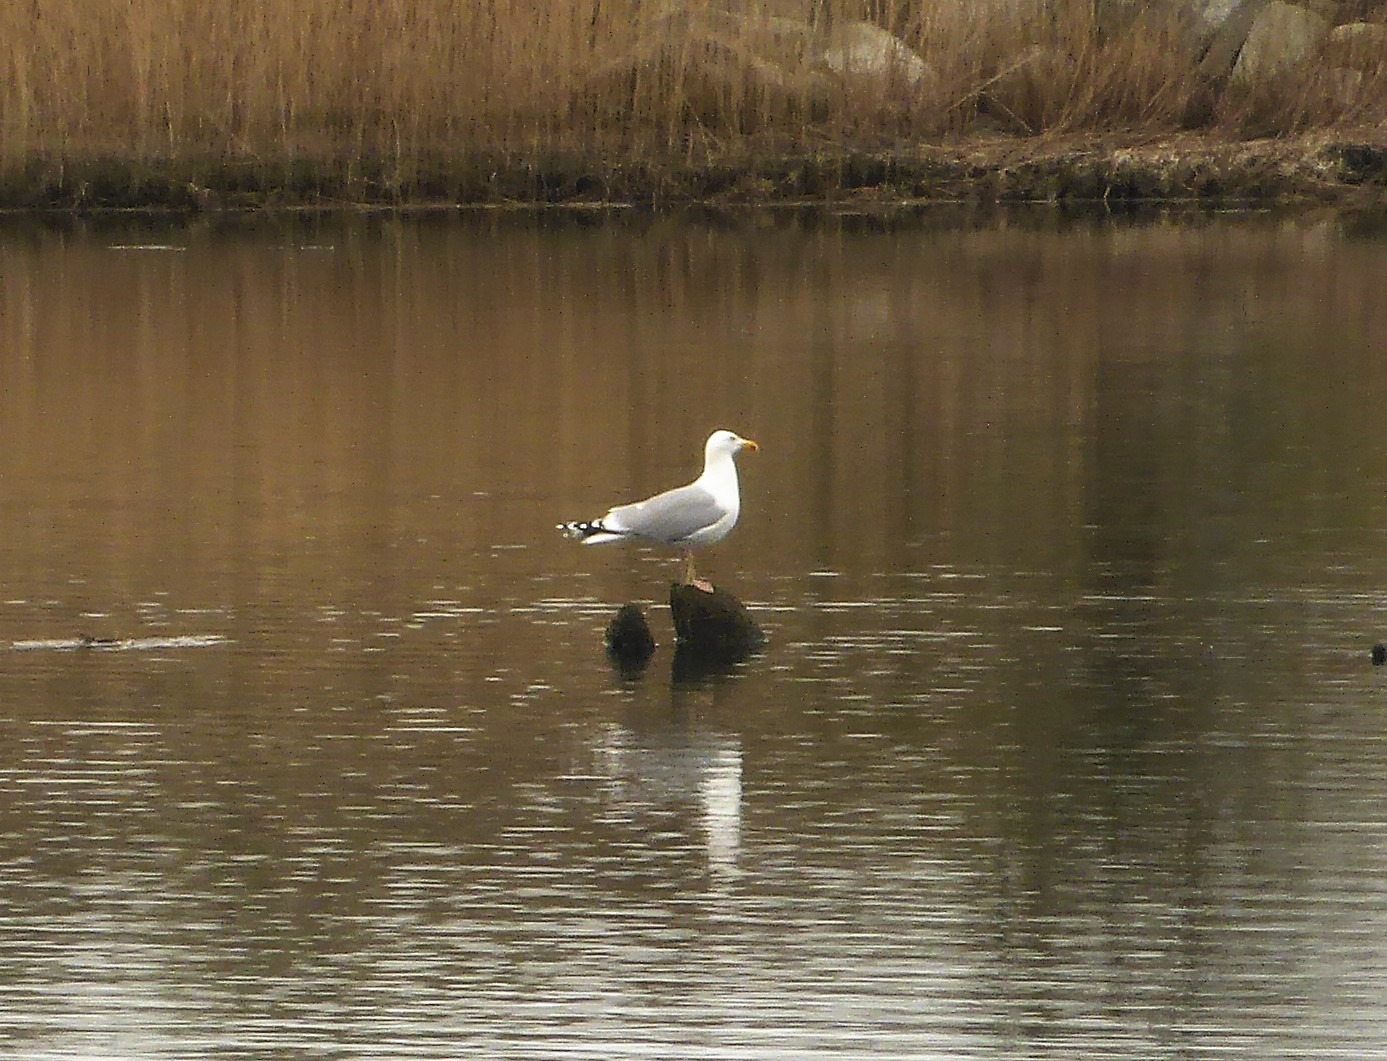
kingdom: Animalia
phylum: Chordata
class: Aves
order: Charadriiformes
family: Laridae
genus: Larus
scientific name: Larus argentatus
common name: Sølvmåge
